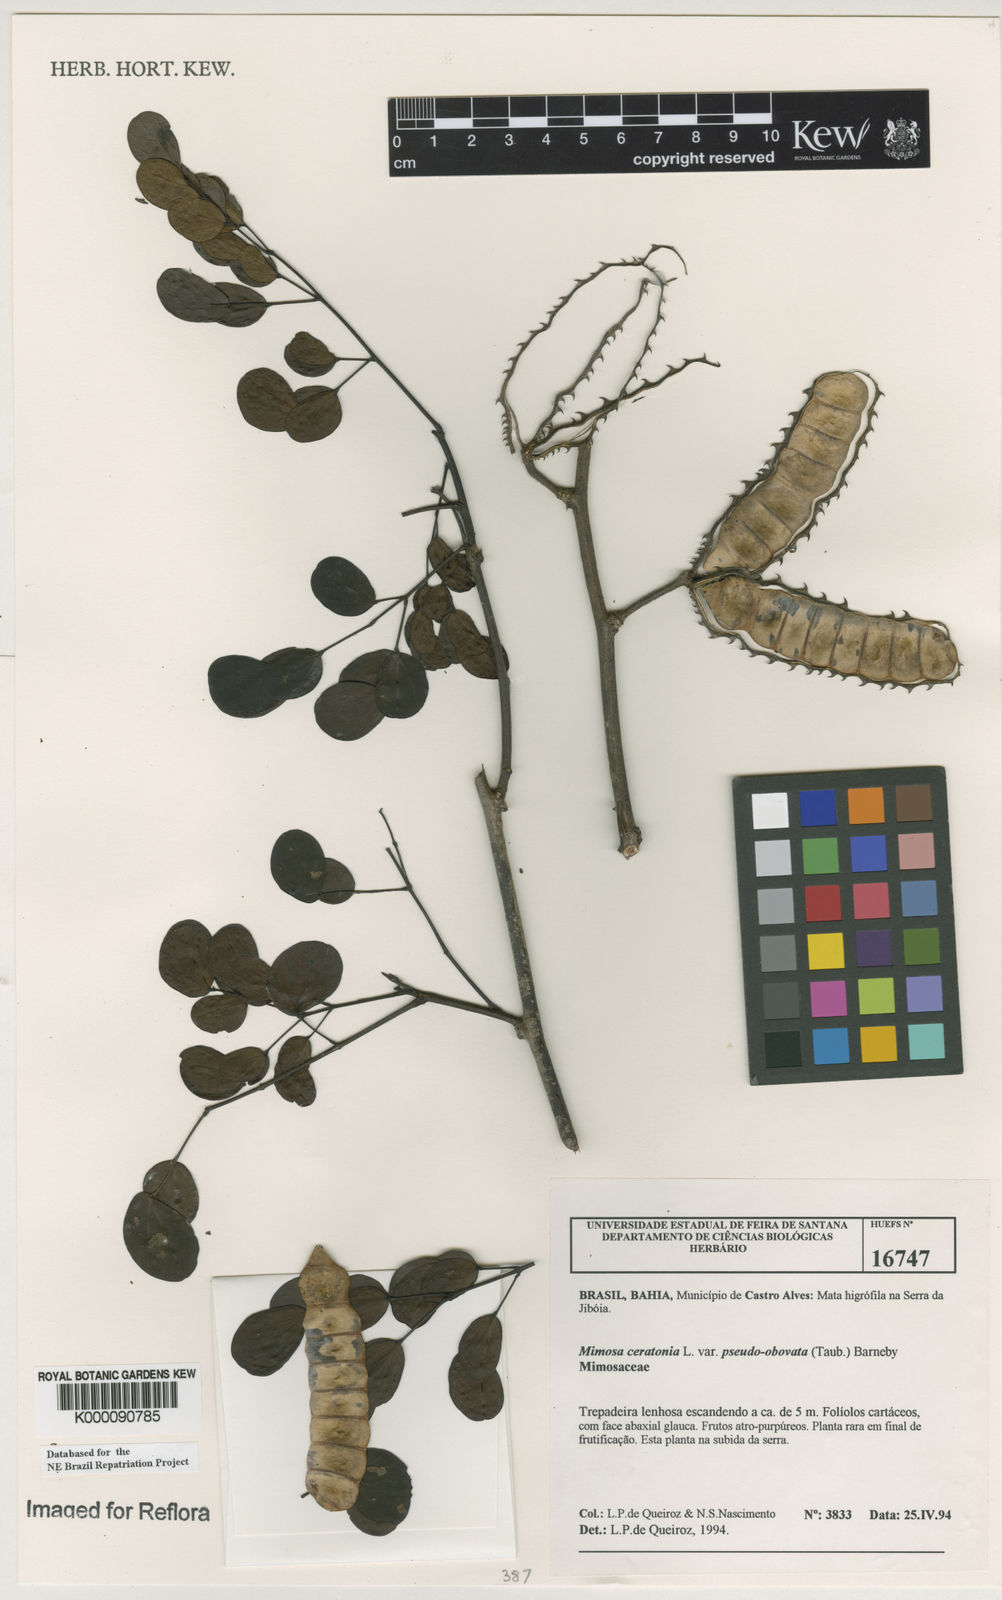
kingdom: Plantae
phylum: Tracheophyta
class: Magnoliopsida
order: Fabales
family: Fabaceae
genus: Mimosa
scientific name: Mimosa ceratonia
